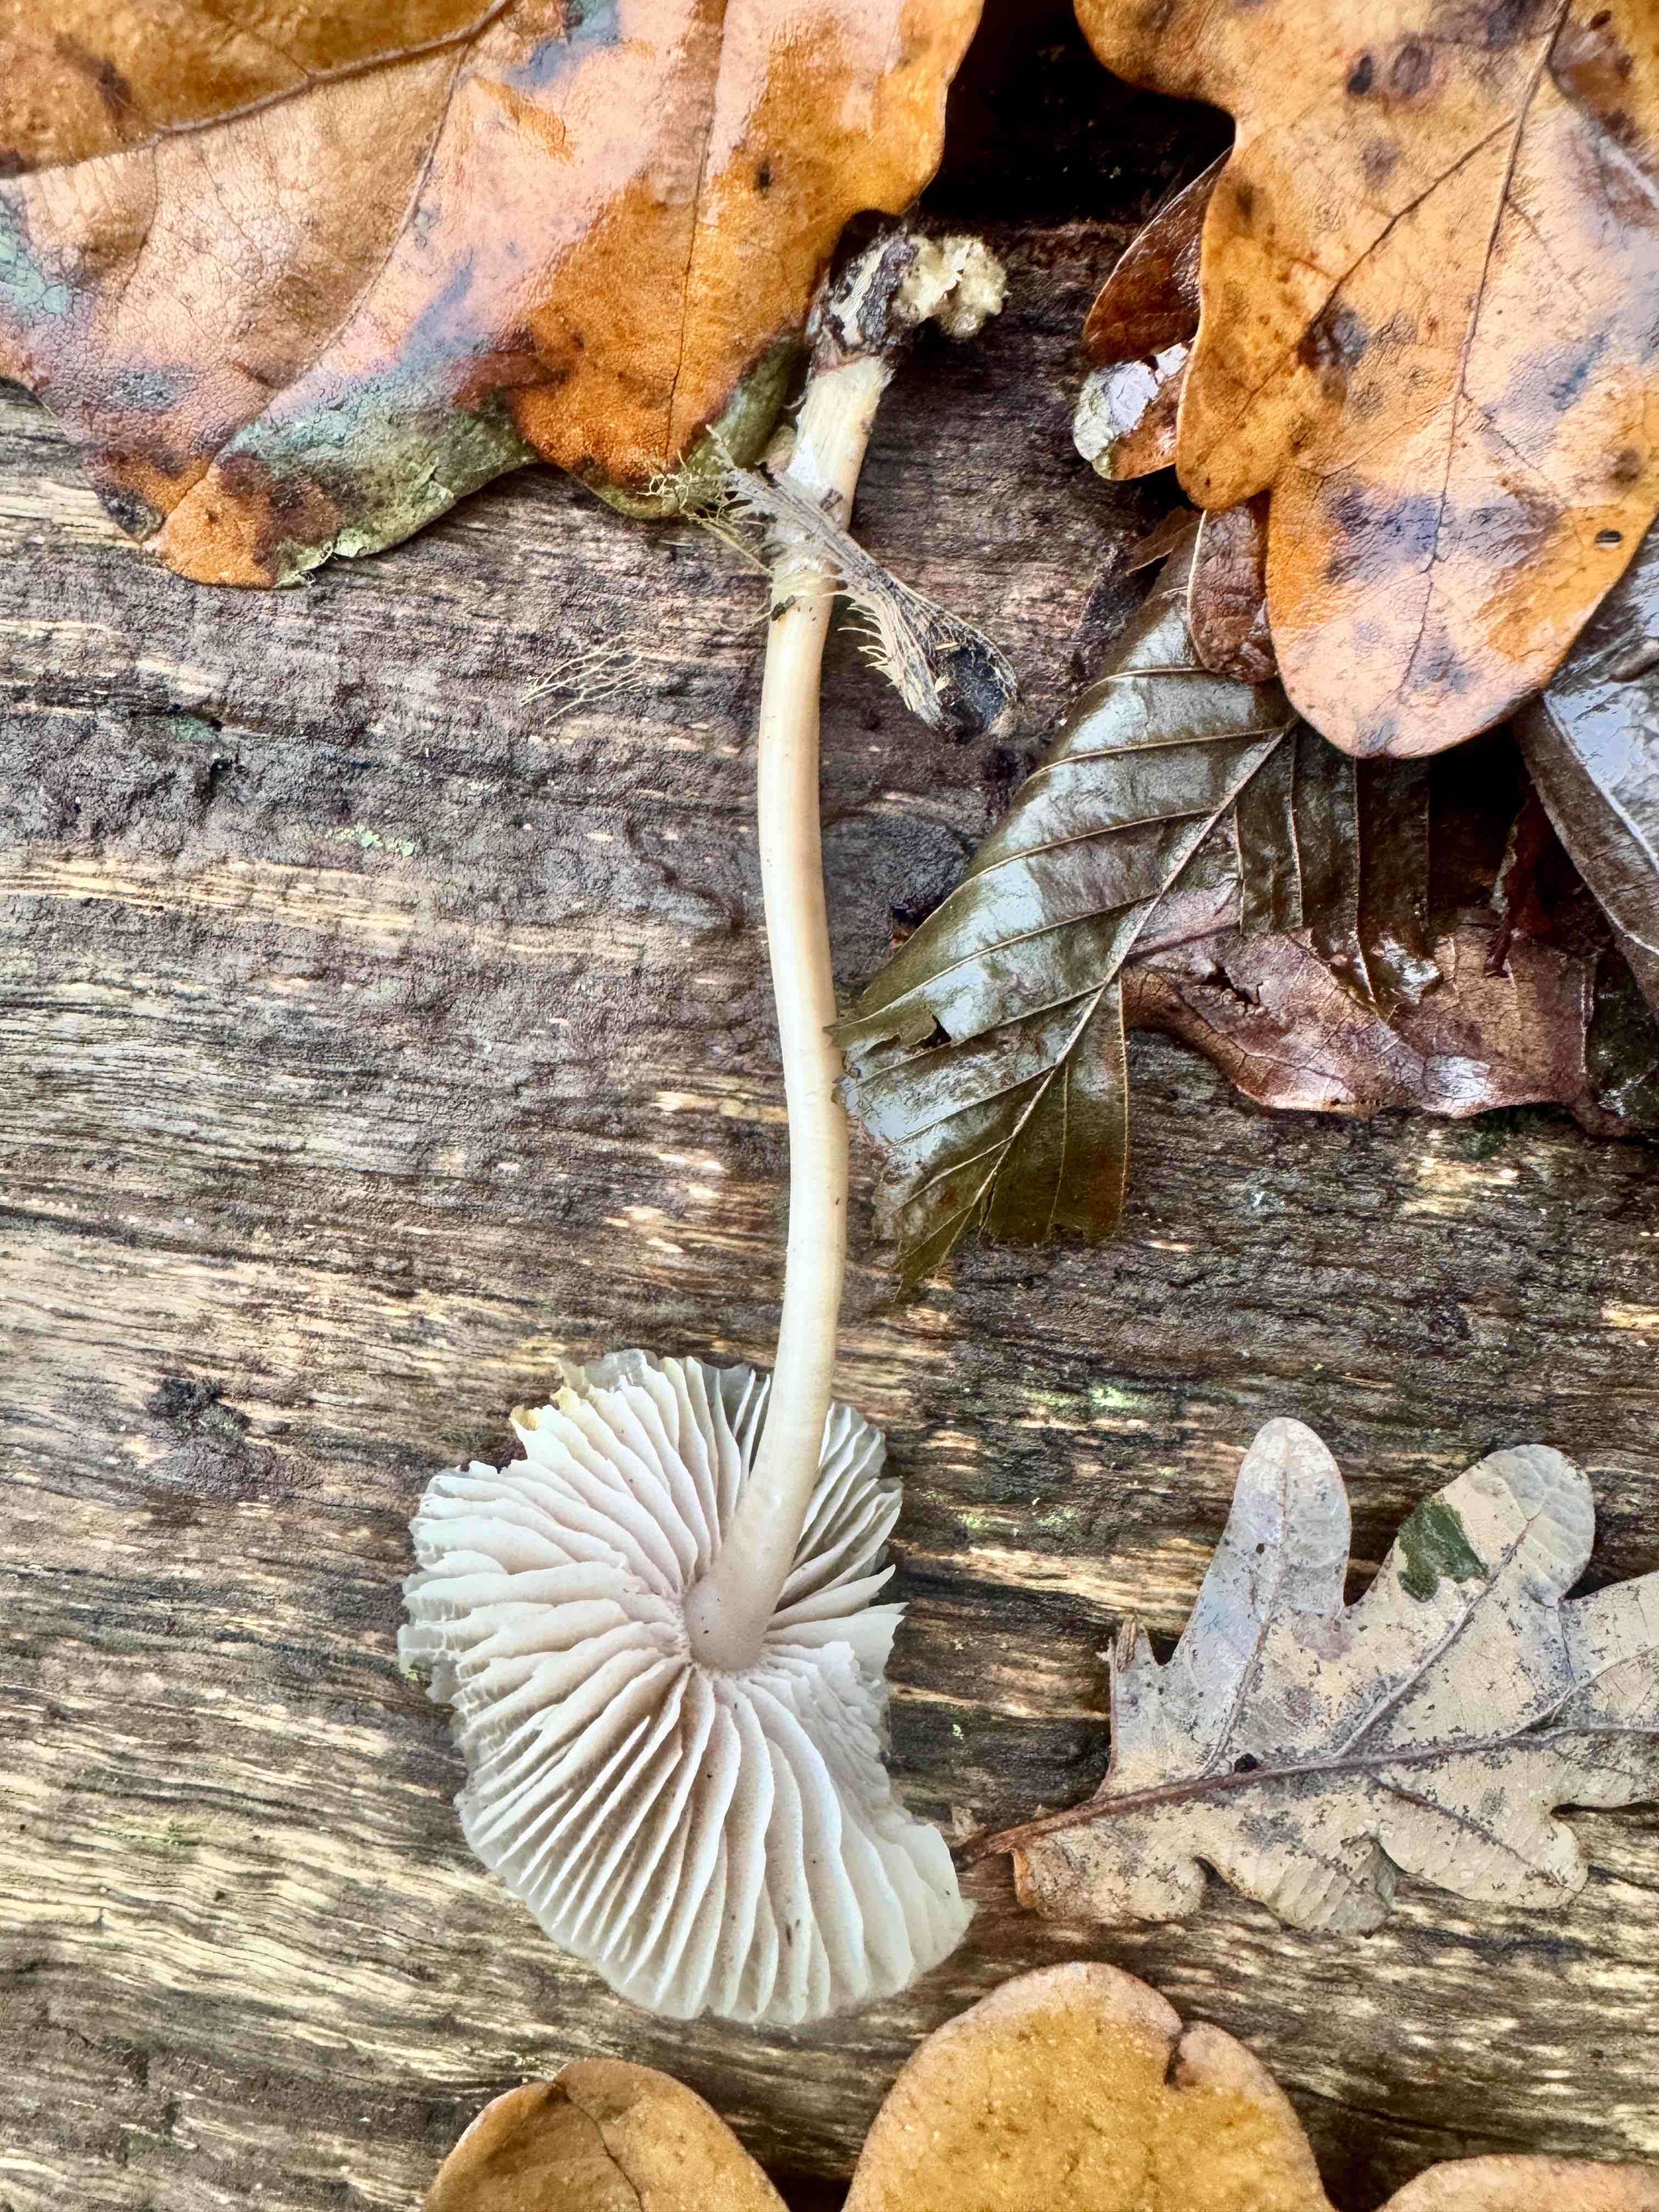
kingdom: Fungi
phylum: Basidiomycota
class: Agaricomycetes
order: Agaricales
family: Mycenaceae
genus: Mycena
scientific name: Mycena galericulata
